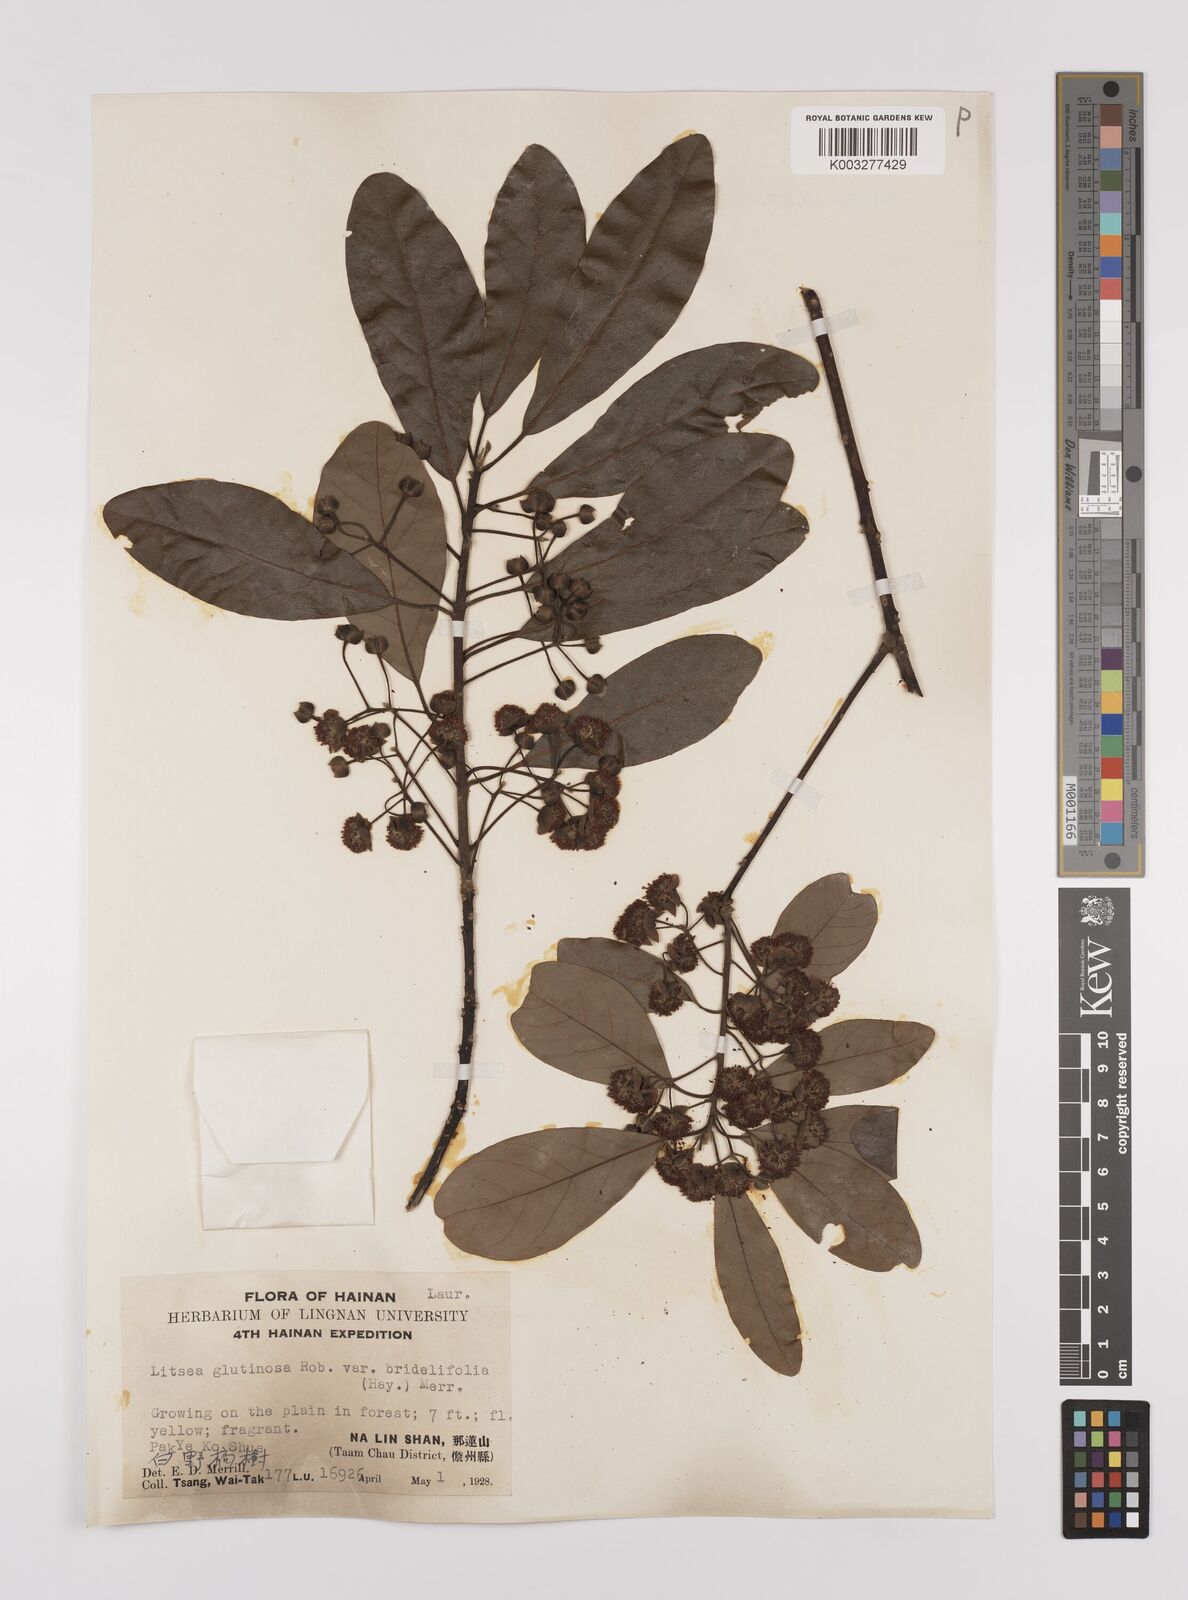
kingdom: Plantae
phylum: Tracheophyta
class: Magnoliopsida
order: Laurales
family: Lauraceae
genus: Litsea
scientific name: Litsea glutinosa
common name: Indian-laurel
